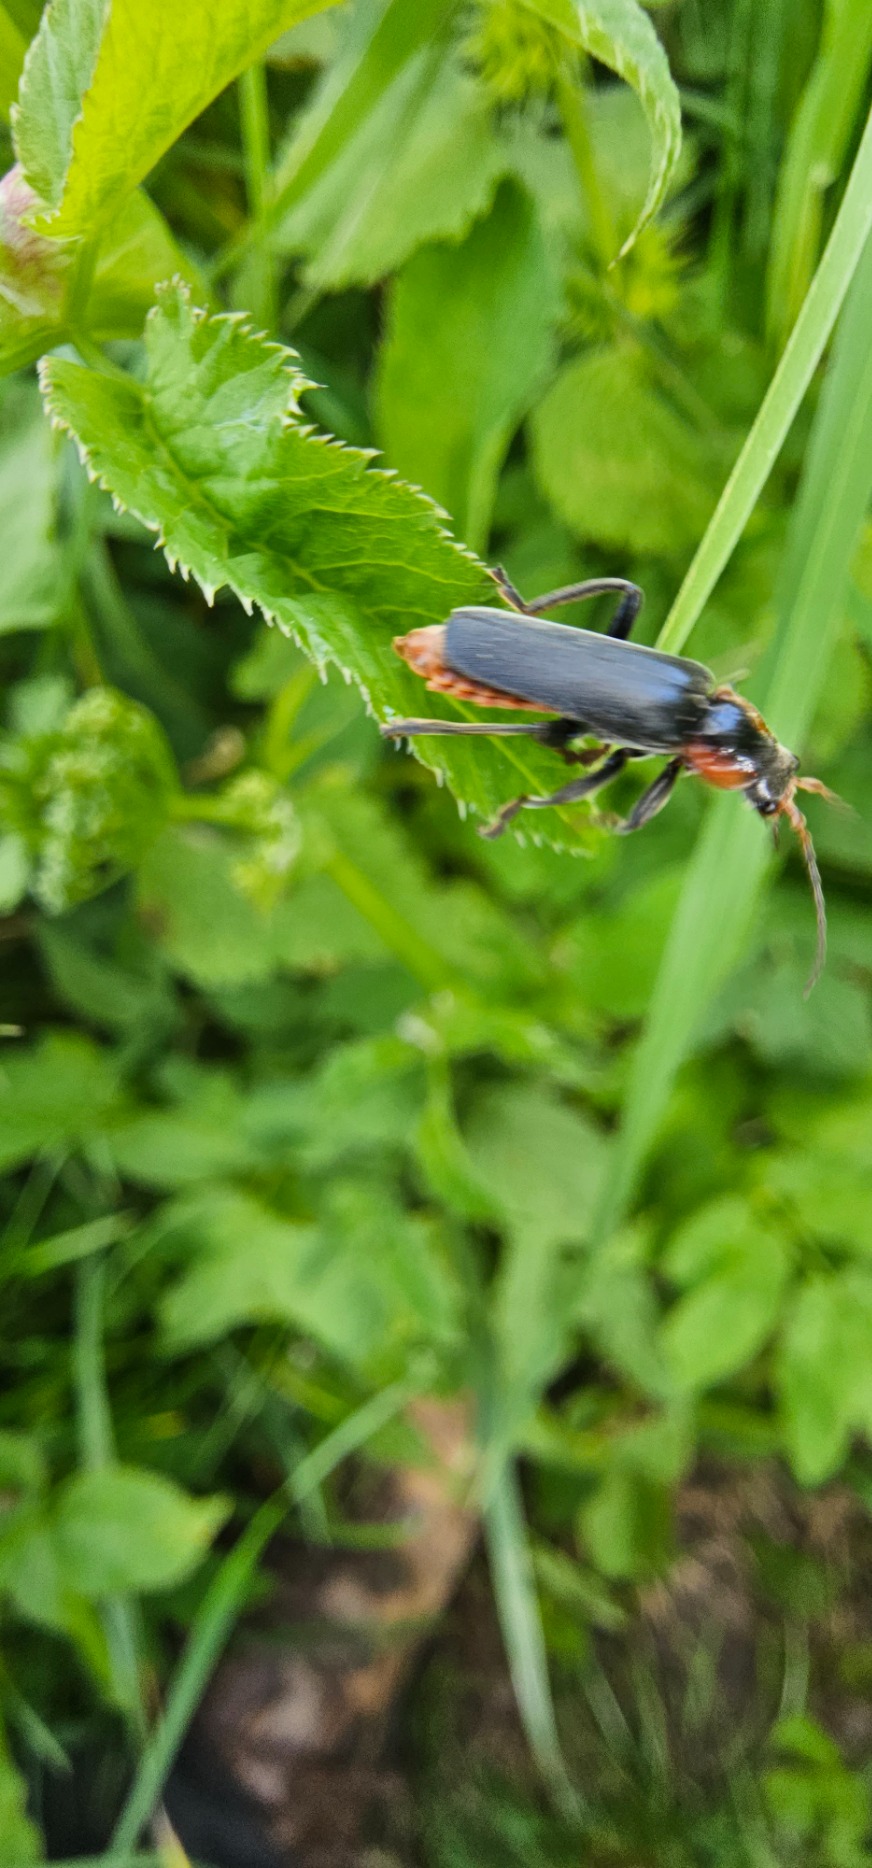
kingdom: Animalia
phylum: Arthropoda
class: Insecta
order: Coleoptera
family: Cantharidae
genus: Cantharis
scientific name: Cantharis fusca
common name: Stor blødvinge
